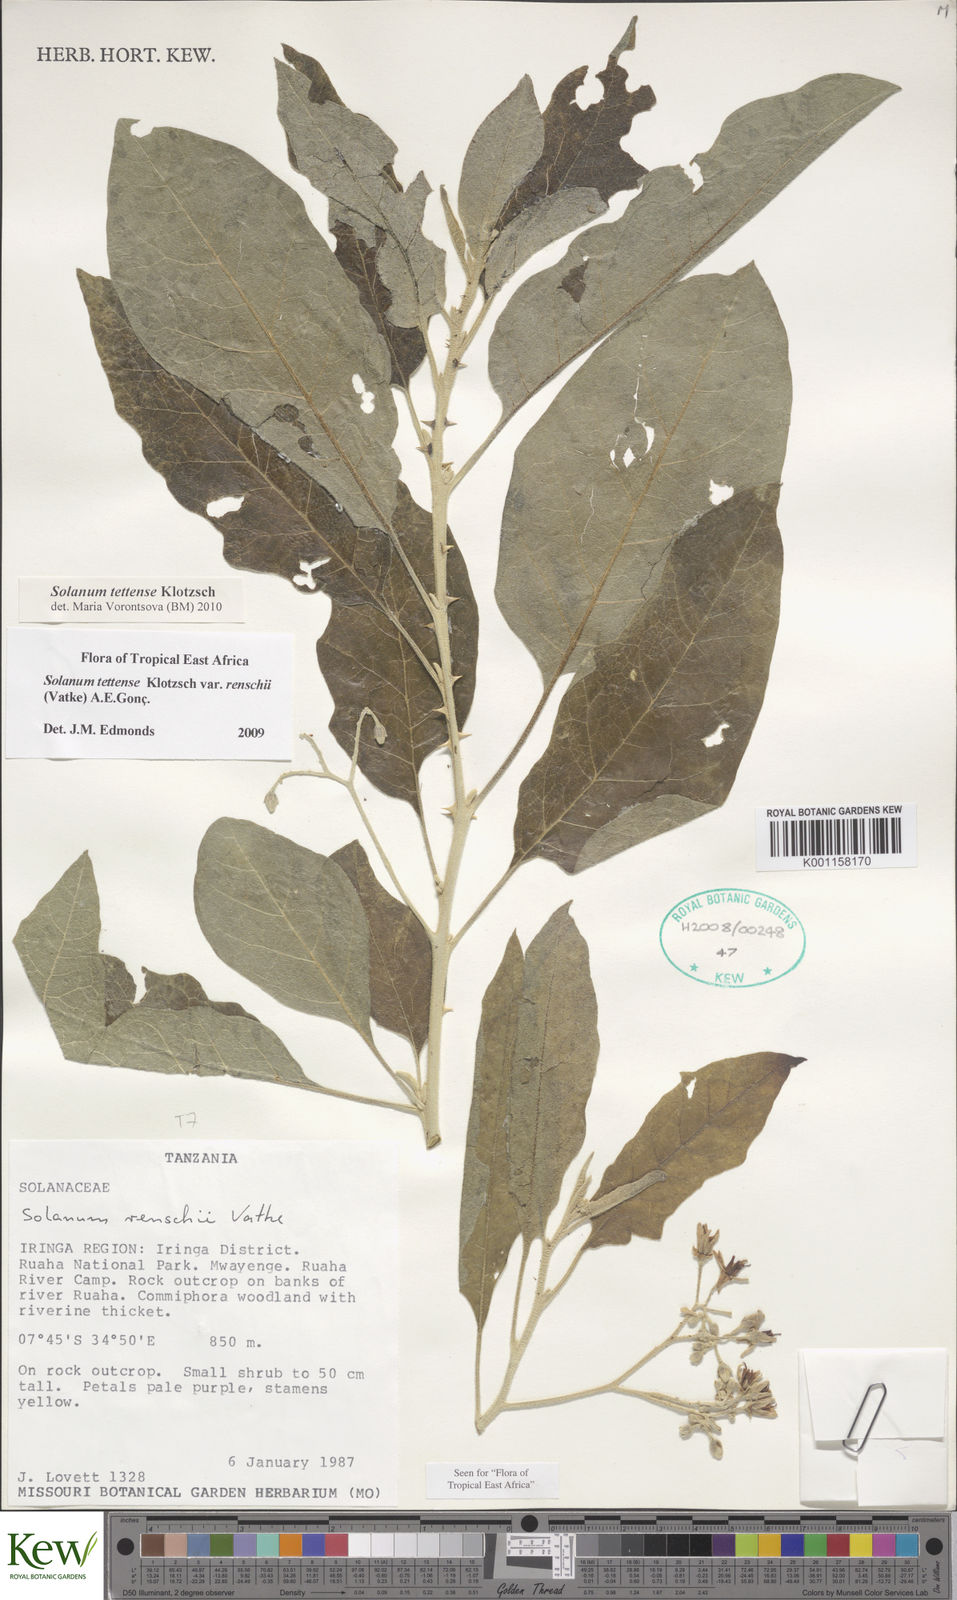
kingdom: Plantae
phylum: Tracheophyta
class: Magnoliopsida
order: Solanales
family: Solanaceae
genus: Solanum
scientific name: Solanum tettense
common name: Mozambique bitter apple
